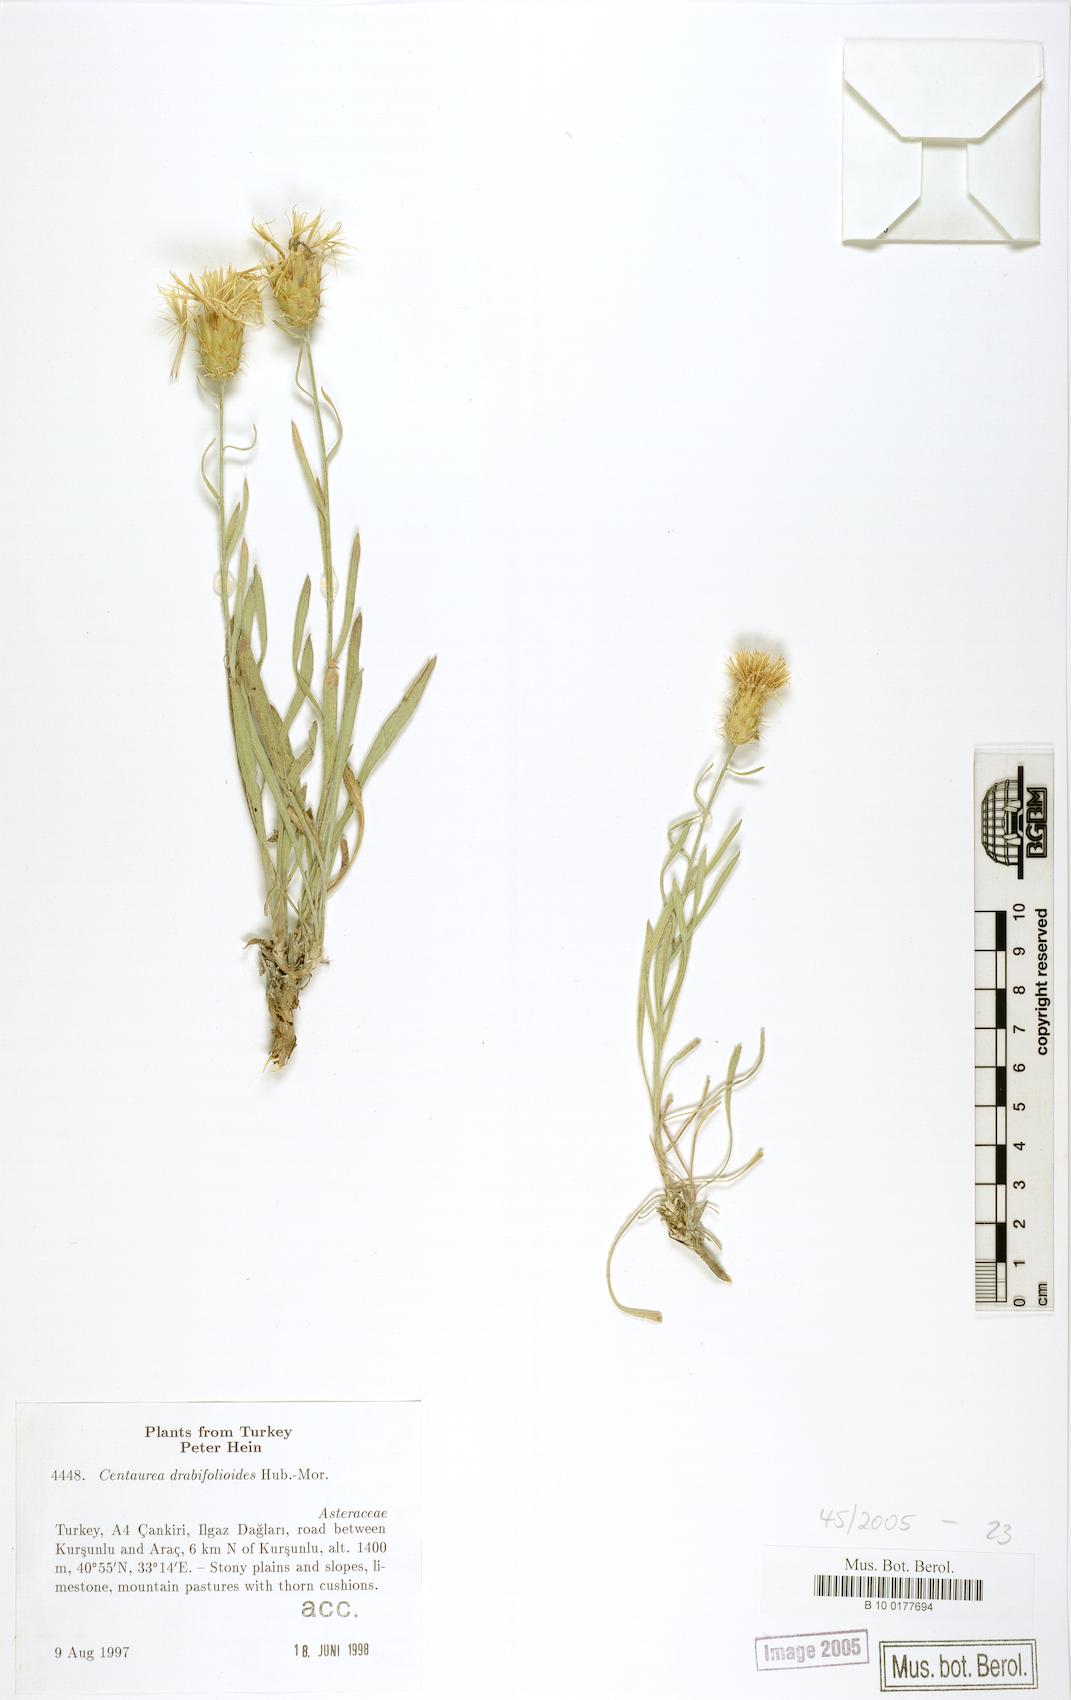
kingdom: Plantae
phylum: Tracheophyta
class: Magnoliopsida
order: Asterales
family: Asteraceae
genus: Centaurea
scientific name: Centaurea drabifolioides
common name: Whitlow-grass-leaved centaury
